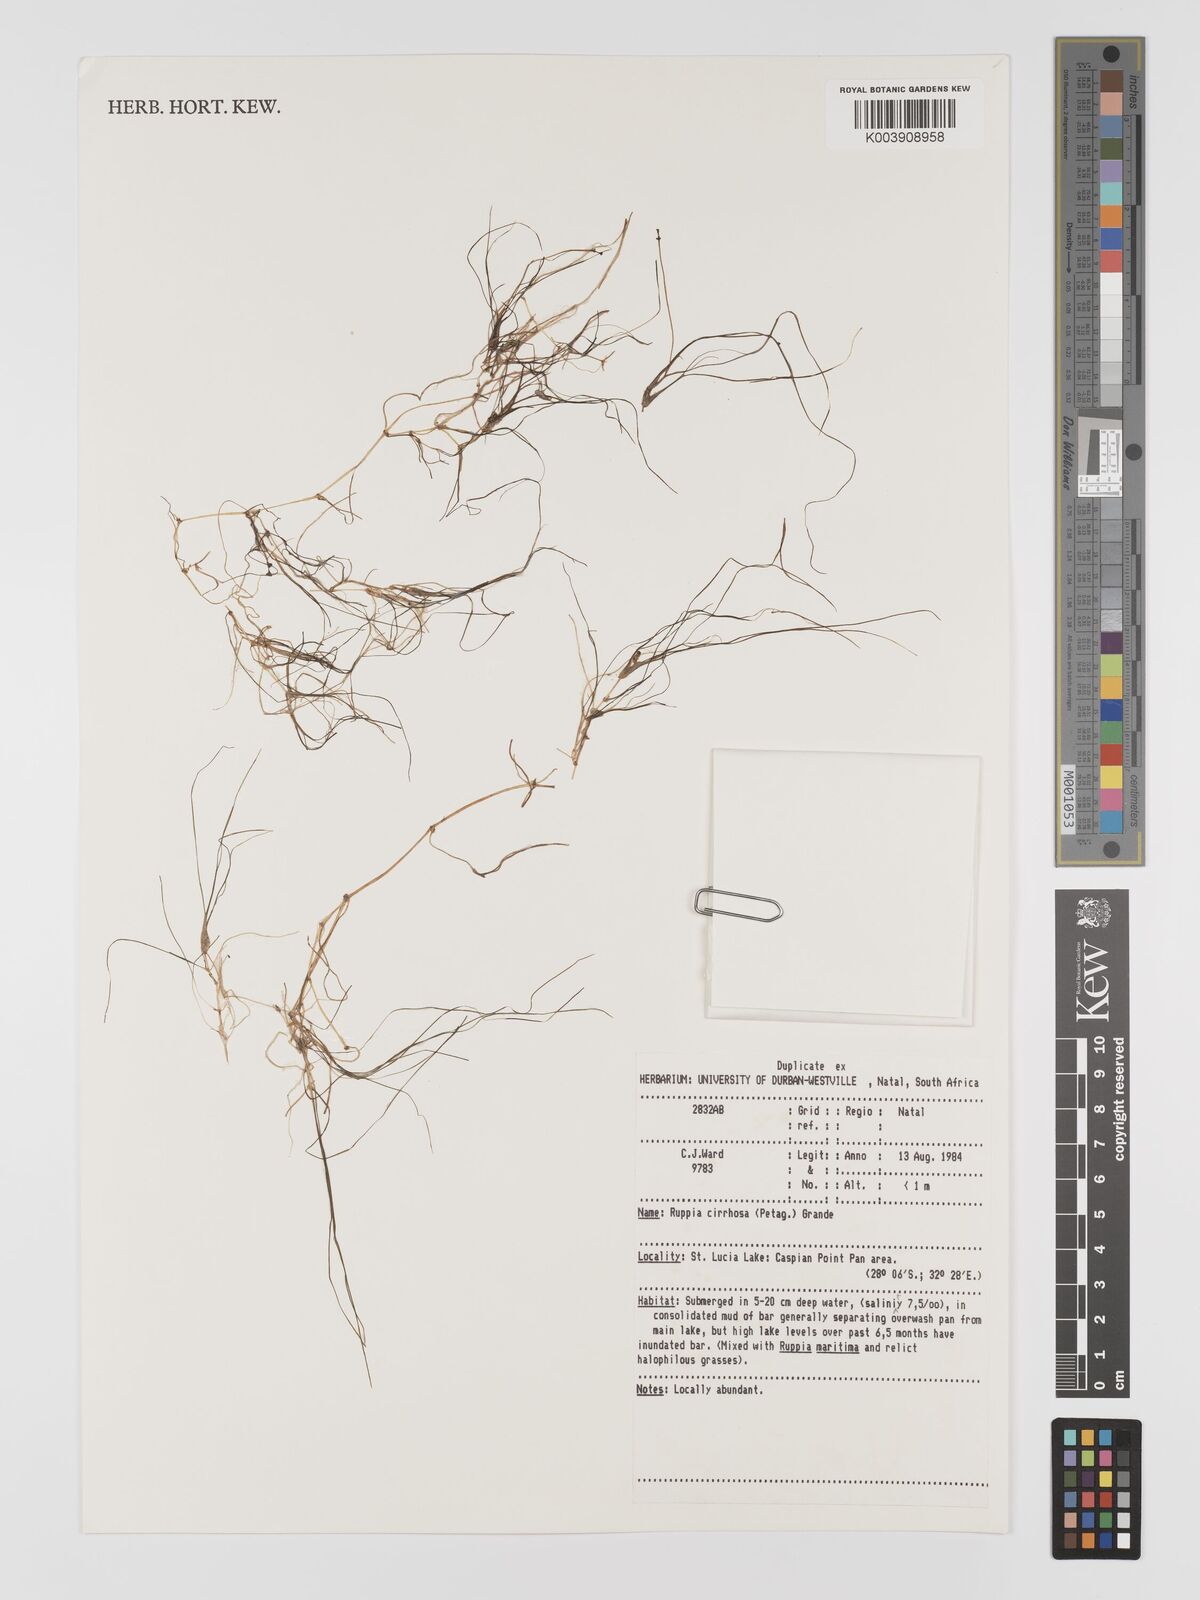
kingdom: Plantae
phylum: Tracheophyta
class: Liliopsida
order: Alismatales
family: Ruppiaceae
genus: Ruppia
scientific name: Ruppia cirrhosa
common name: Spiral tasselweed
